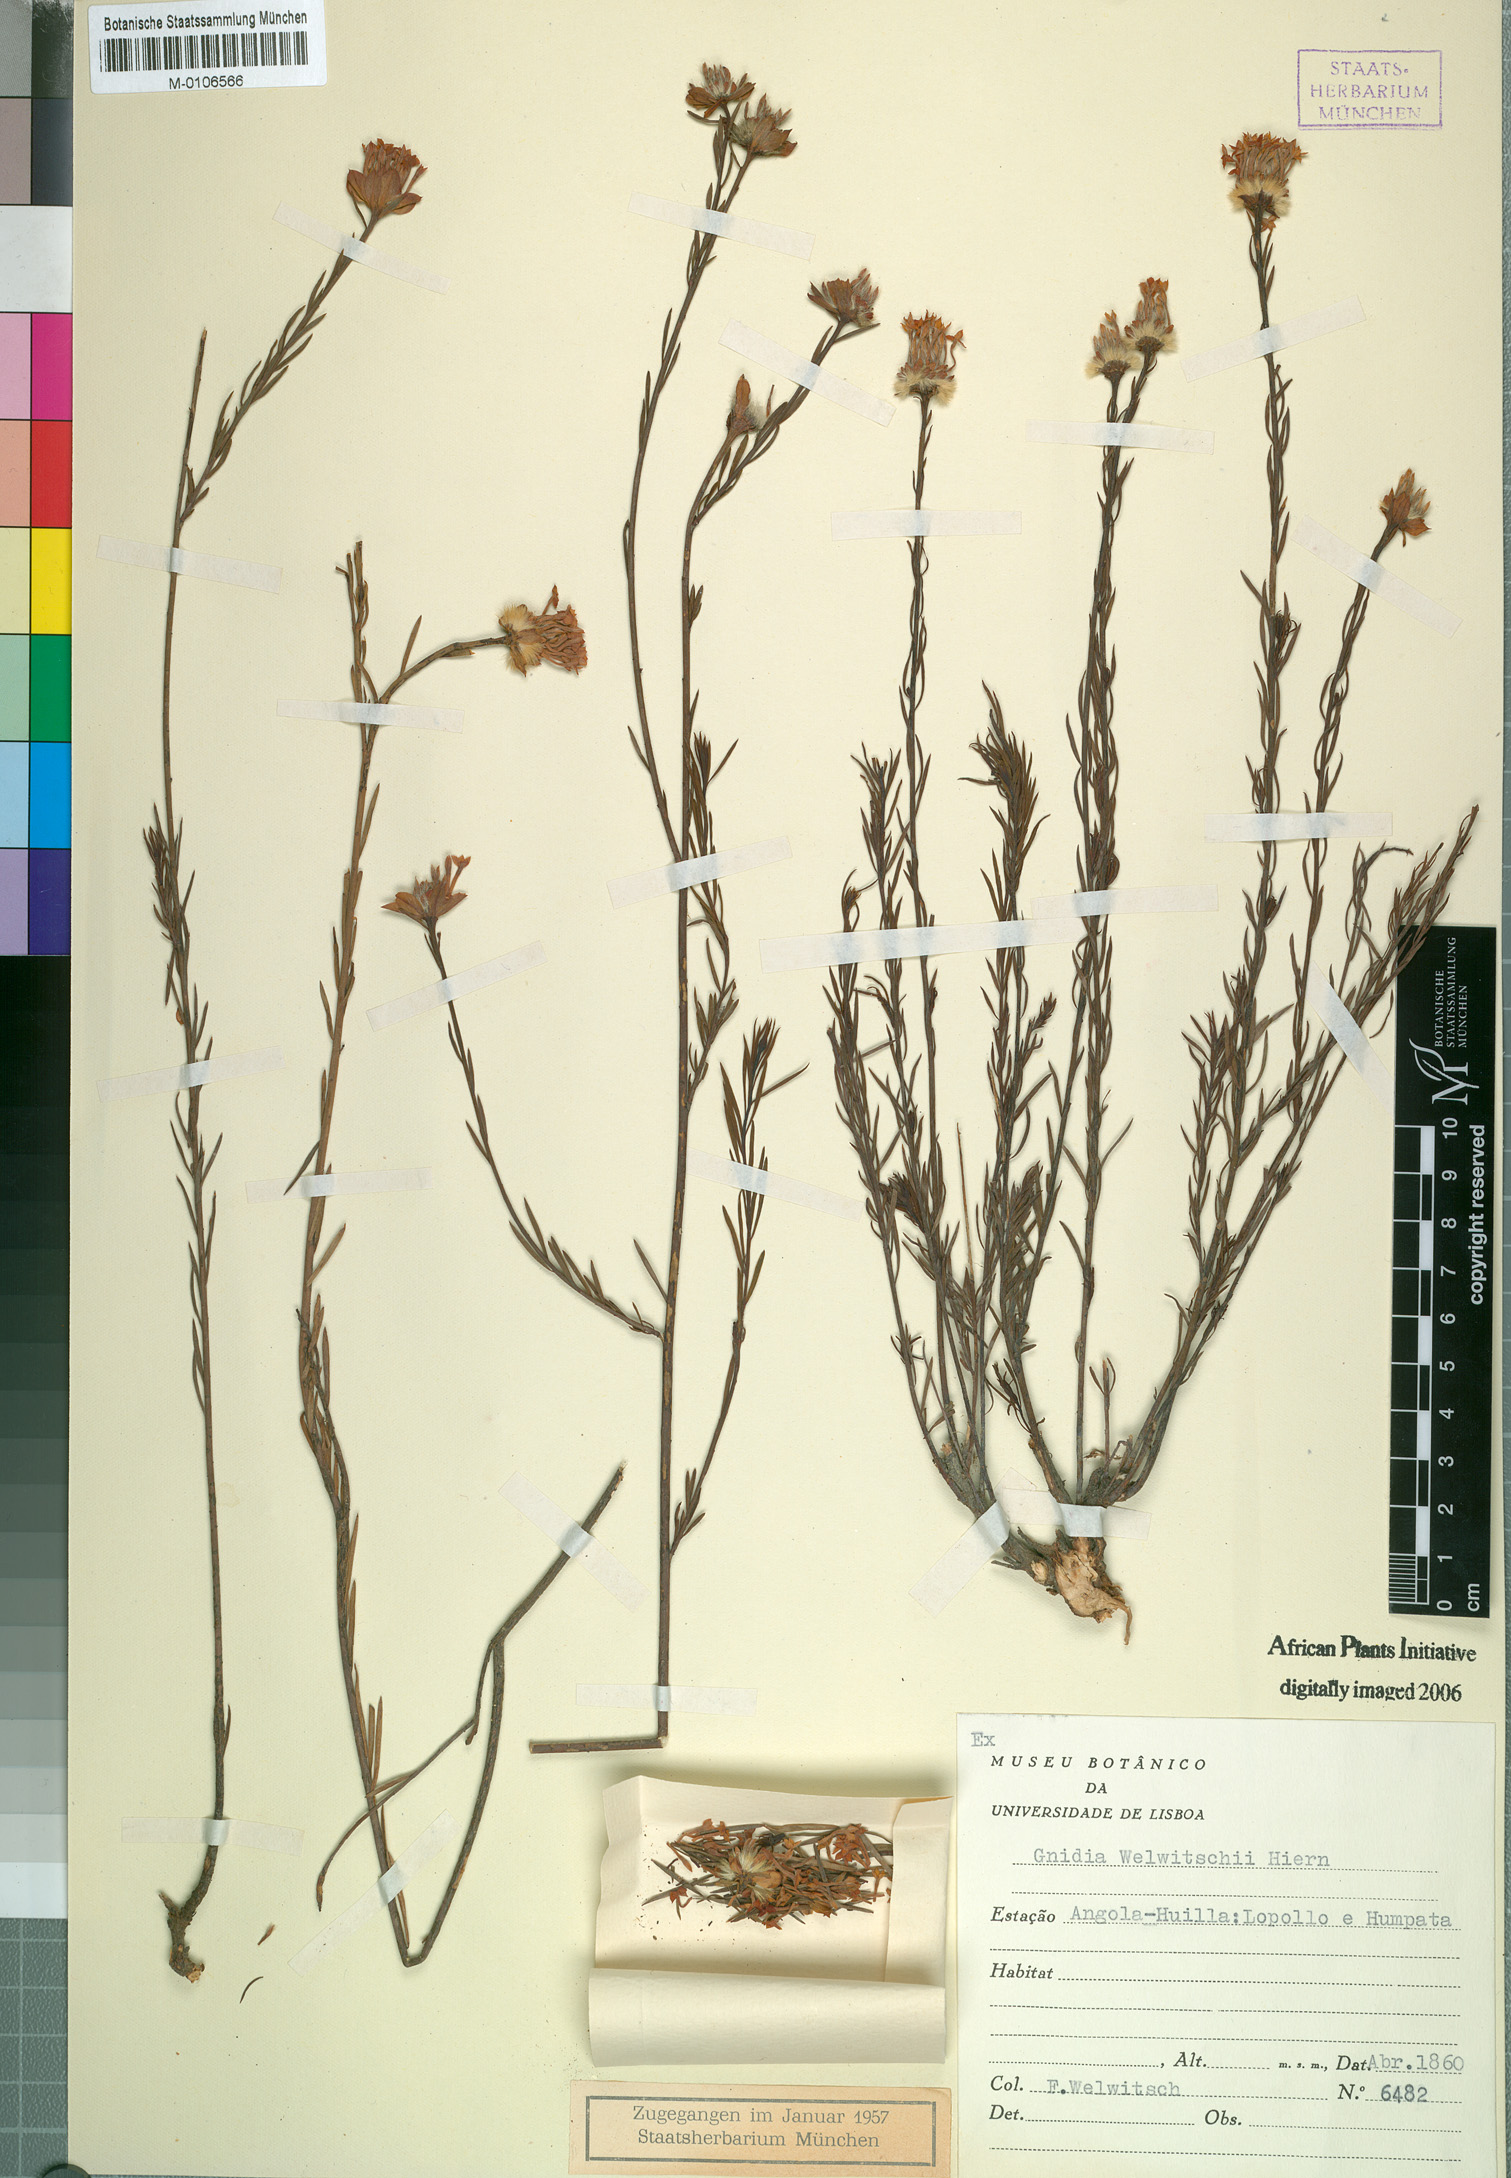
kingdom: Plantae
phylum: Tracheophyta
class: Magnoliopsida
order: Malvales
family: Thymelaeaceae
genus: Gnidia
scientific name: Gnidia welwitschii
